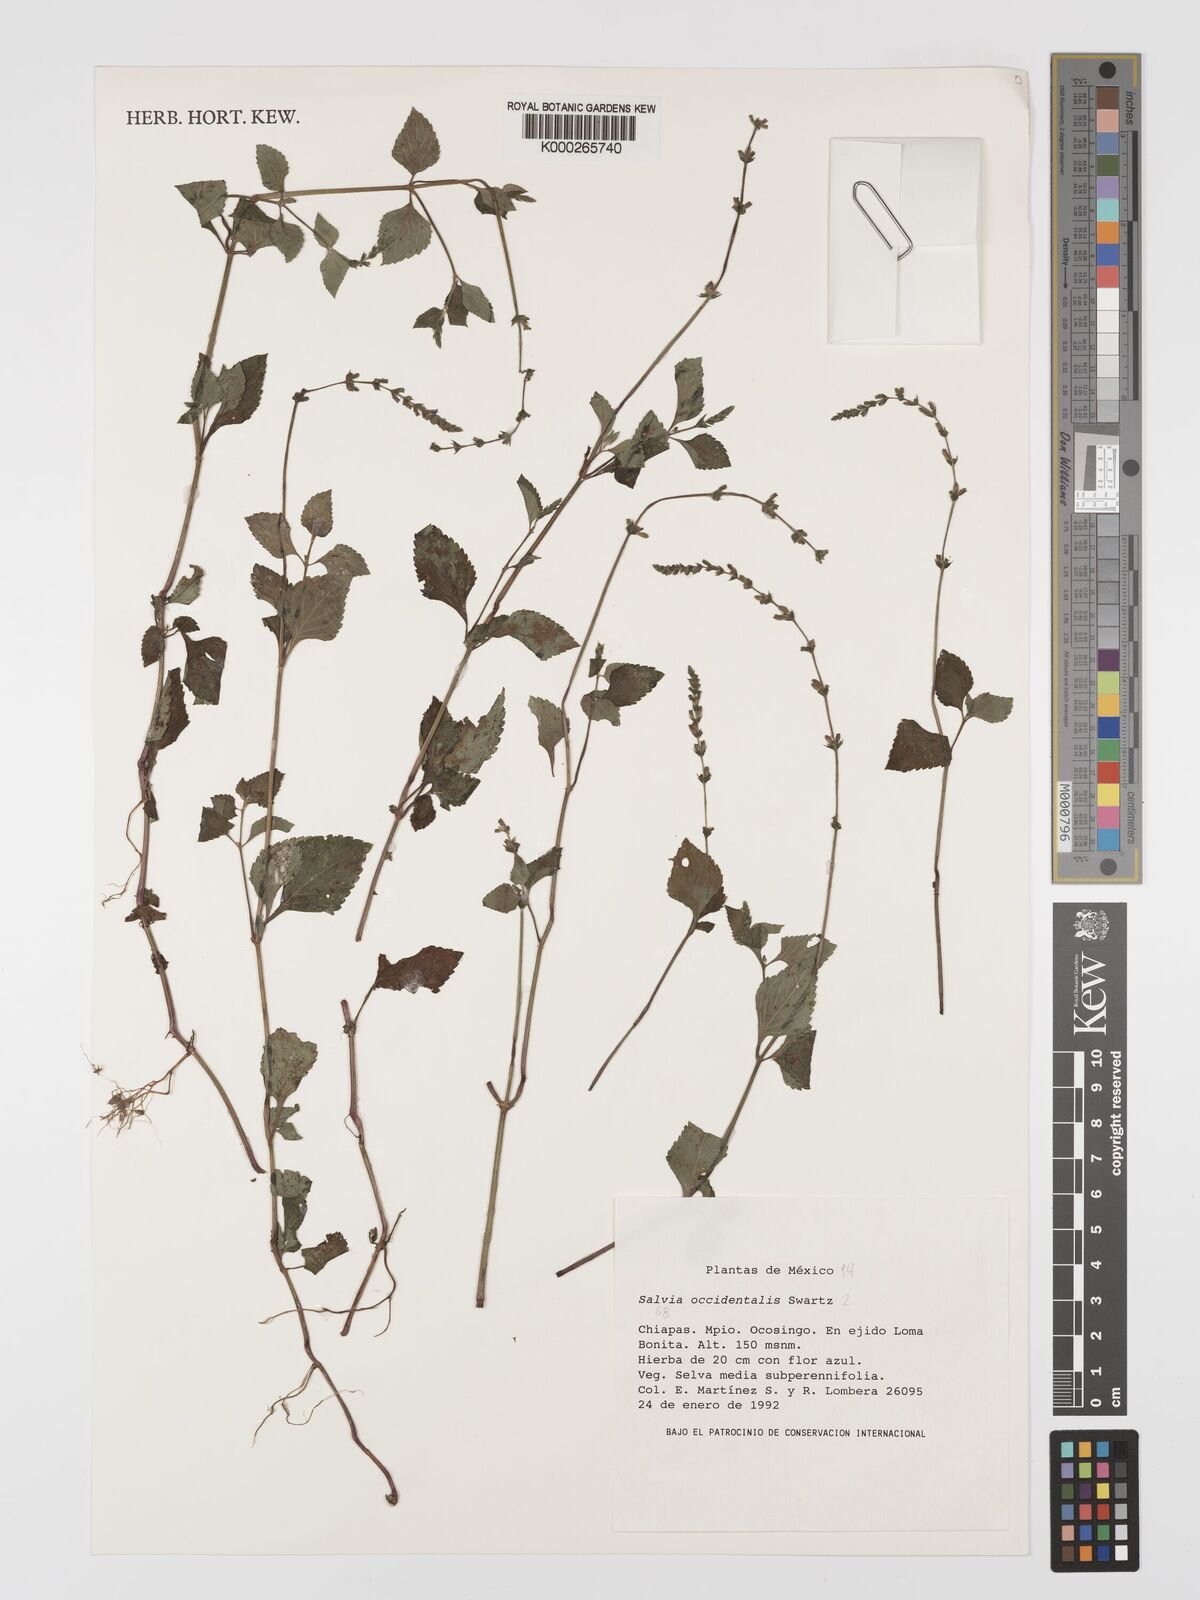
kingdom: Plantae
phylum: Tracheophyta
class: Magnoliopsida
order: Lamiales
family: Lamiaceae
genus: Salvia
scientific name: Salvia occidentalis
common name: West indian sage
